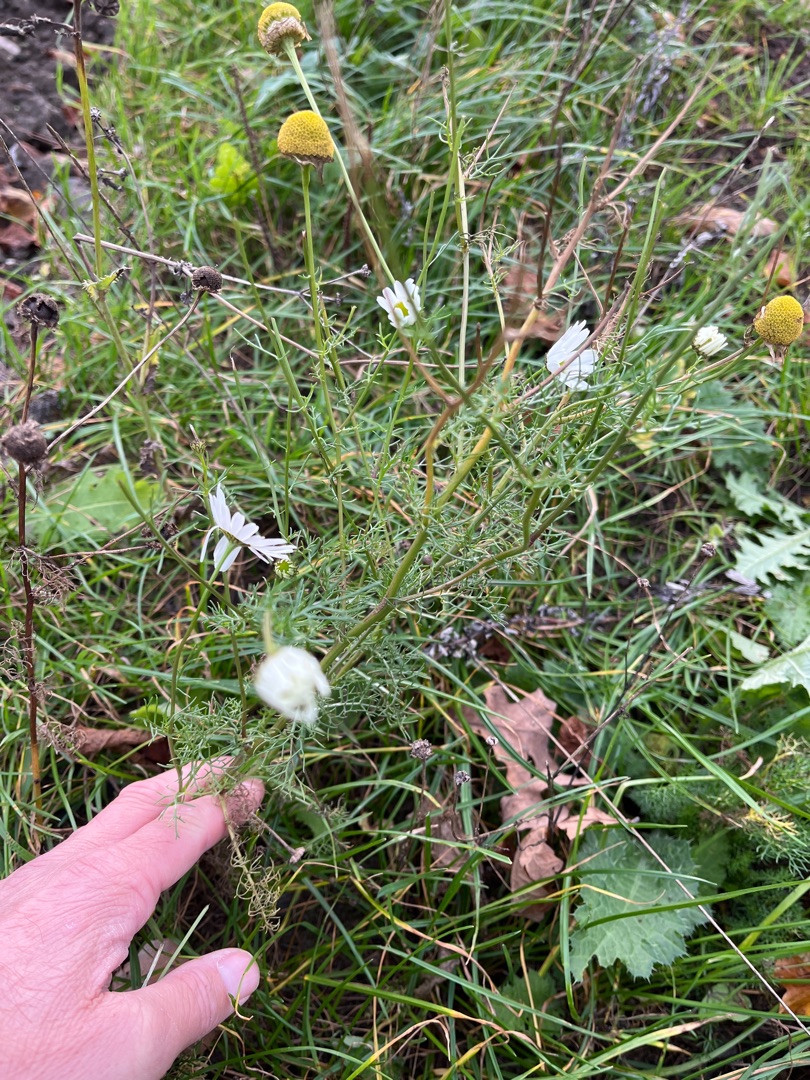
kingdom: Plantae
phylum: Tracheophyta
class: Magnoliopsida
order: Asterales
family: Asteraceae
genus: Tripleurospermum
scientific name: Tripleurospermum inodorum
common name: Lugtløs kamille
